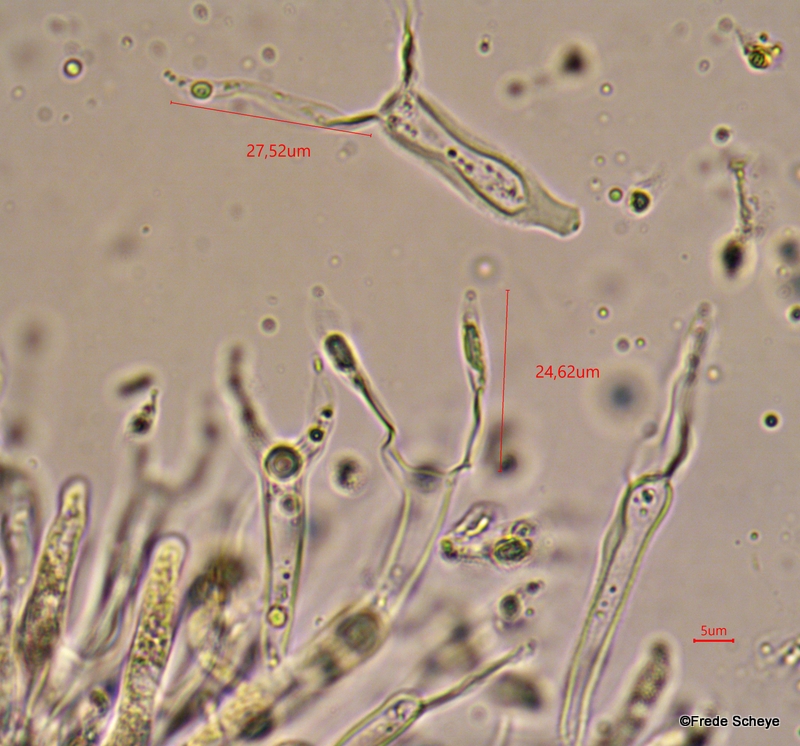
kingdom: Fungi
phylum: Basidiomycota
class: Dacrymycetes
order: Dacrymycetales
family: Dacrymycetaceae
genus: Dacrymyces
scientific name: Dacrymyces stillatus
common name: almindelig tåresvamp
